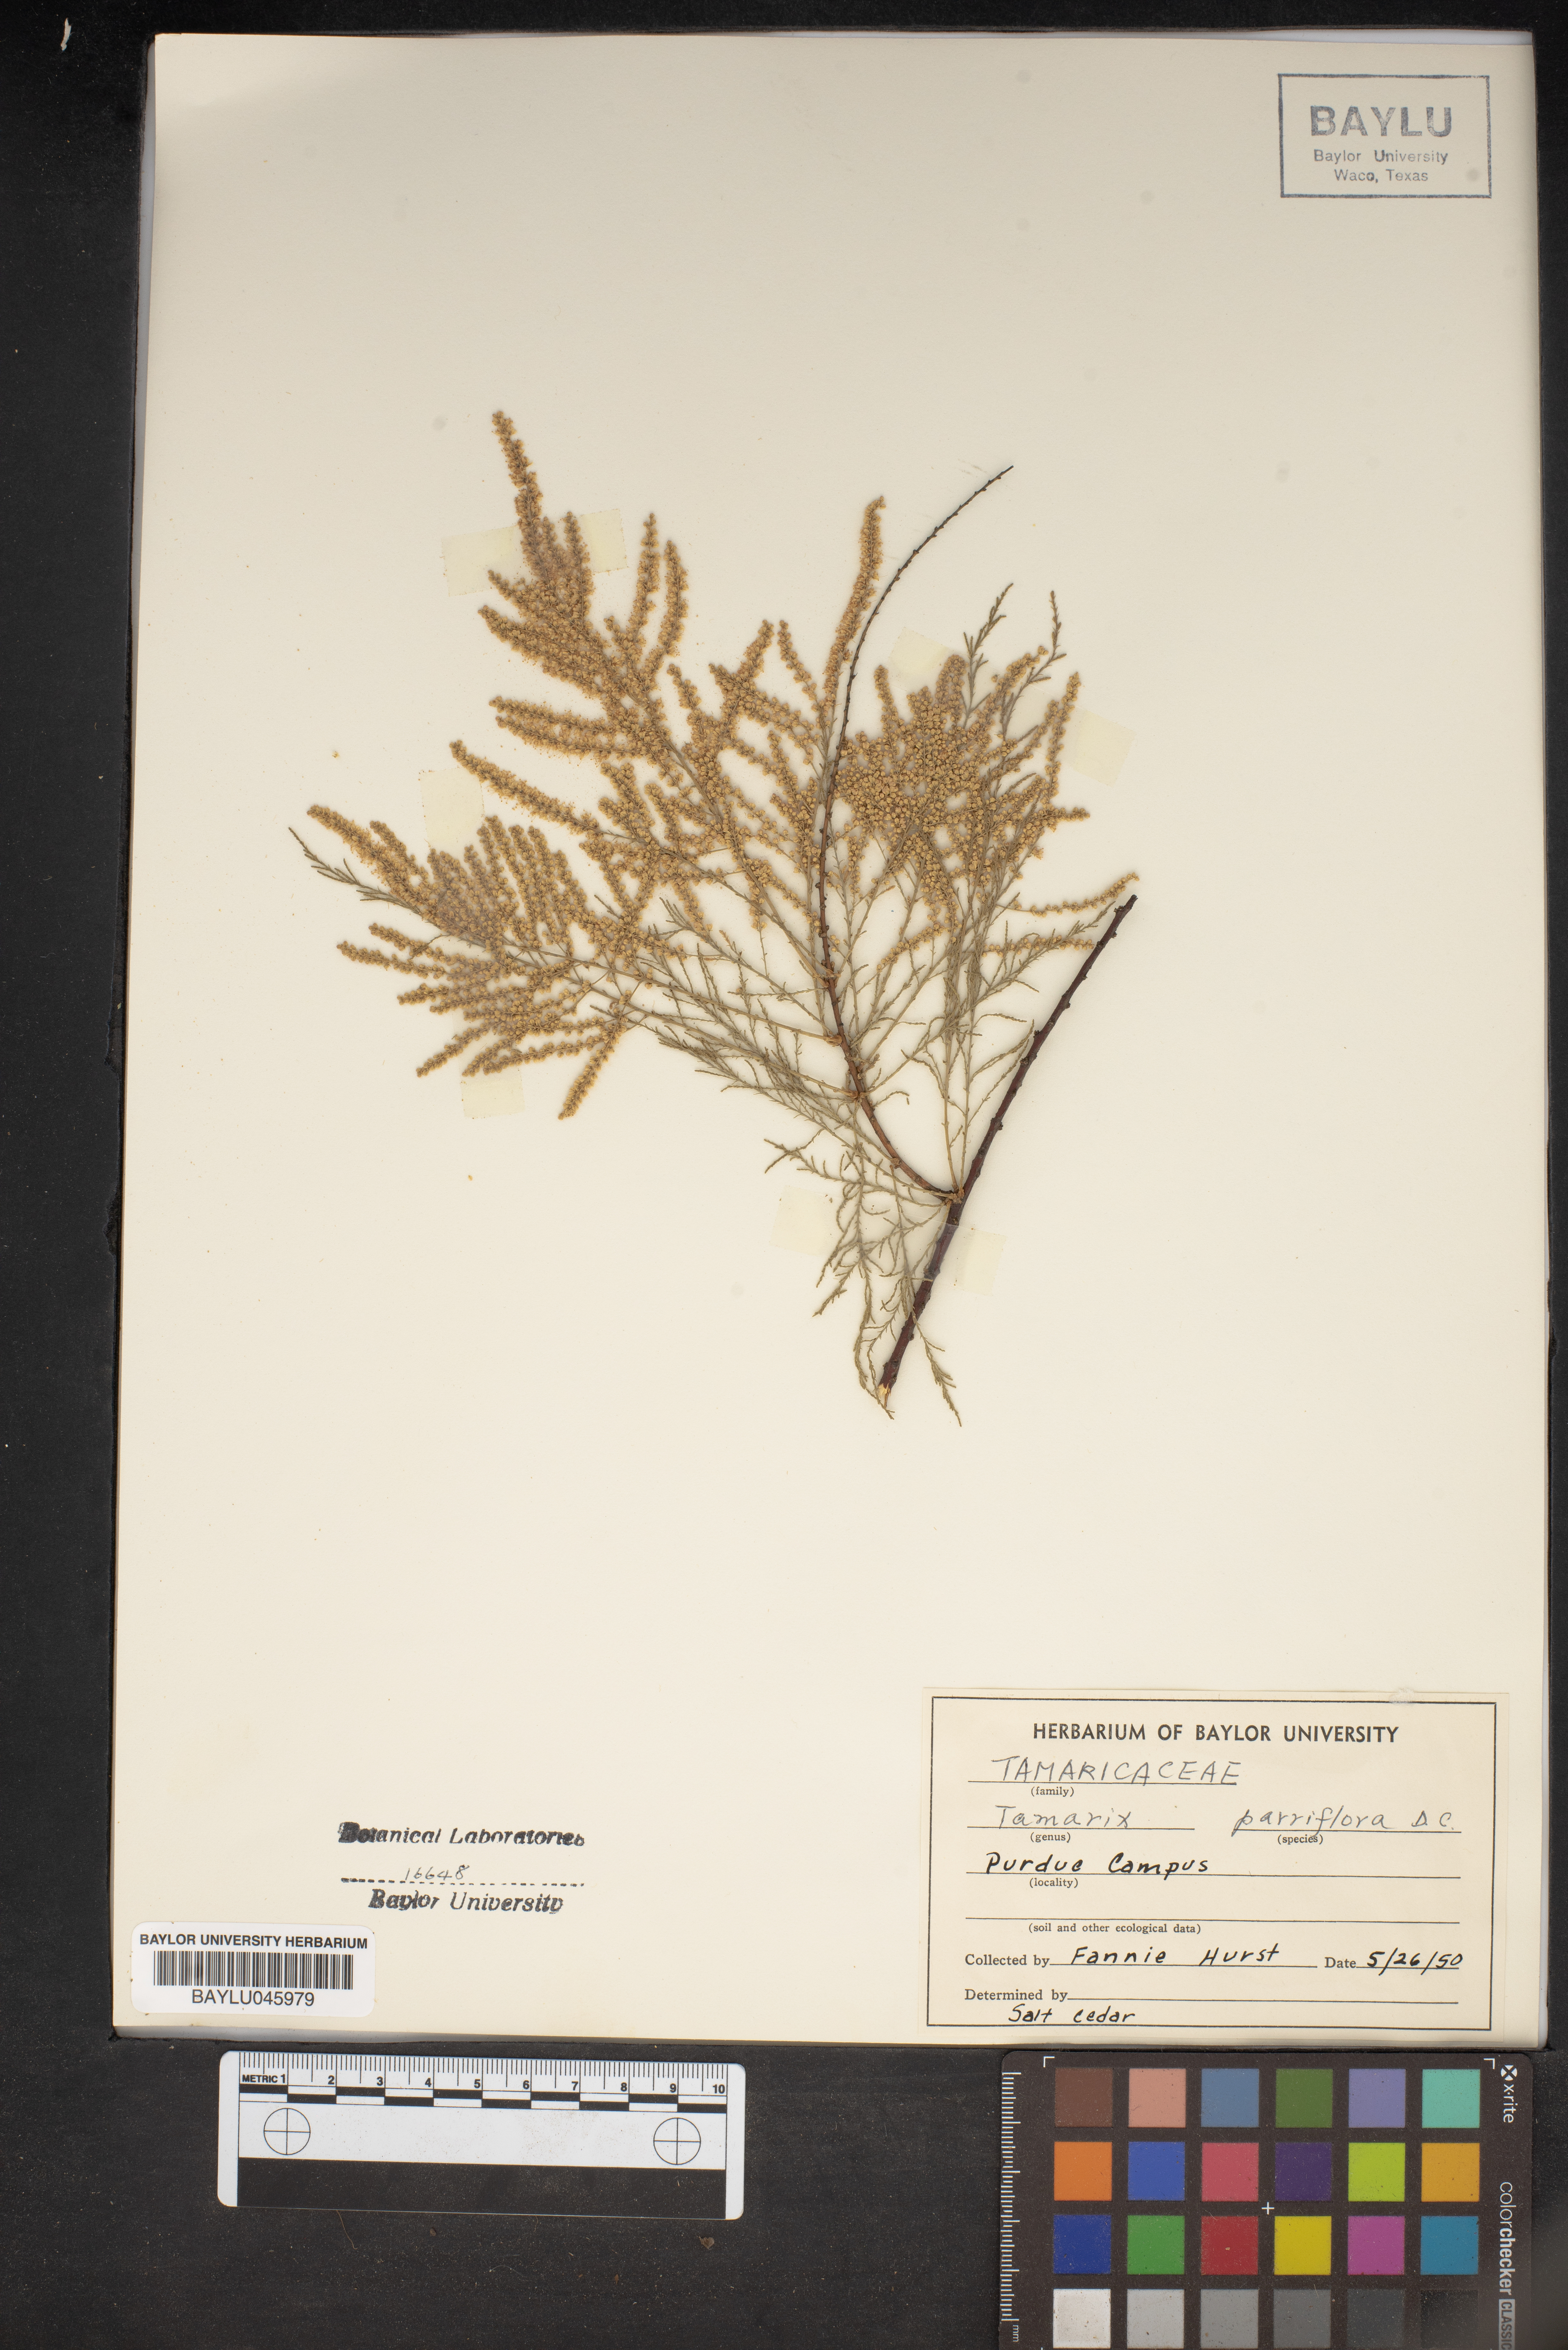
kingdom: Plantae
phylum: Tracheophyta
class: Magnoliopsida
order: Caryophyllales
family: Tamaricaceae
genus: Tamarix
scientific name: Tamarix parviflora
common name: Smallflower tamarisk
